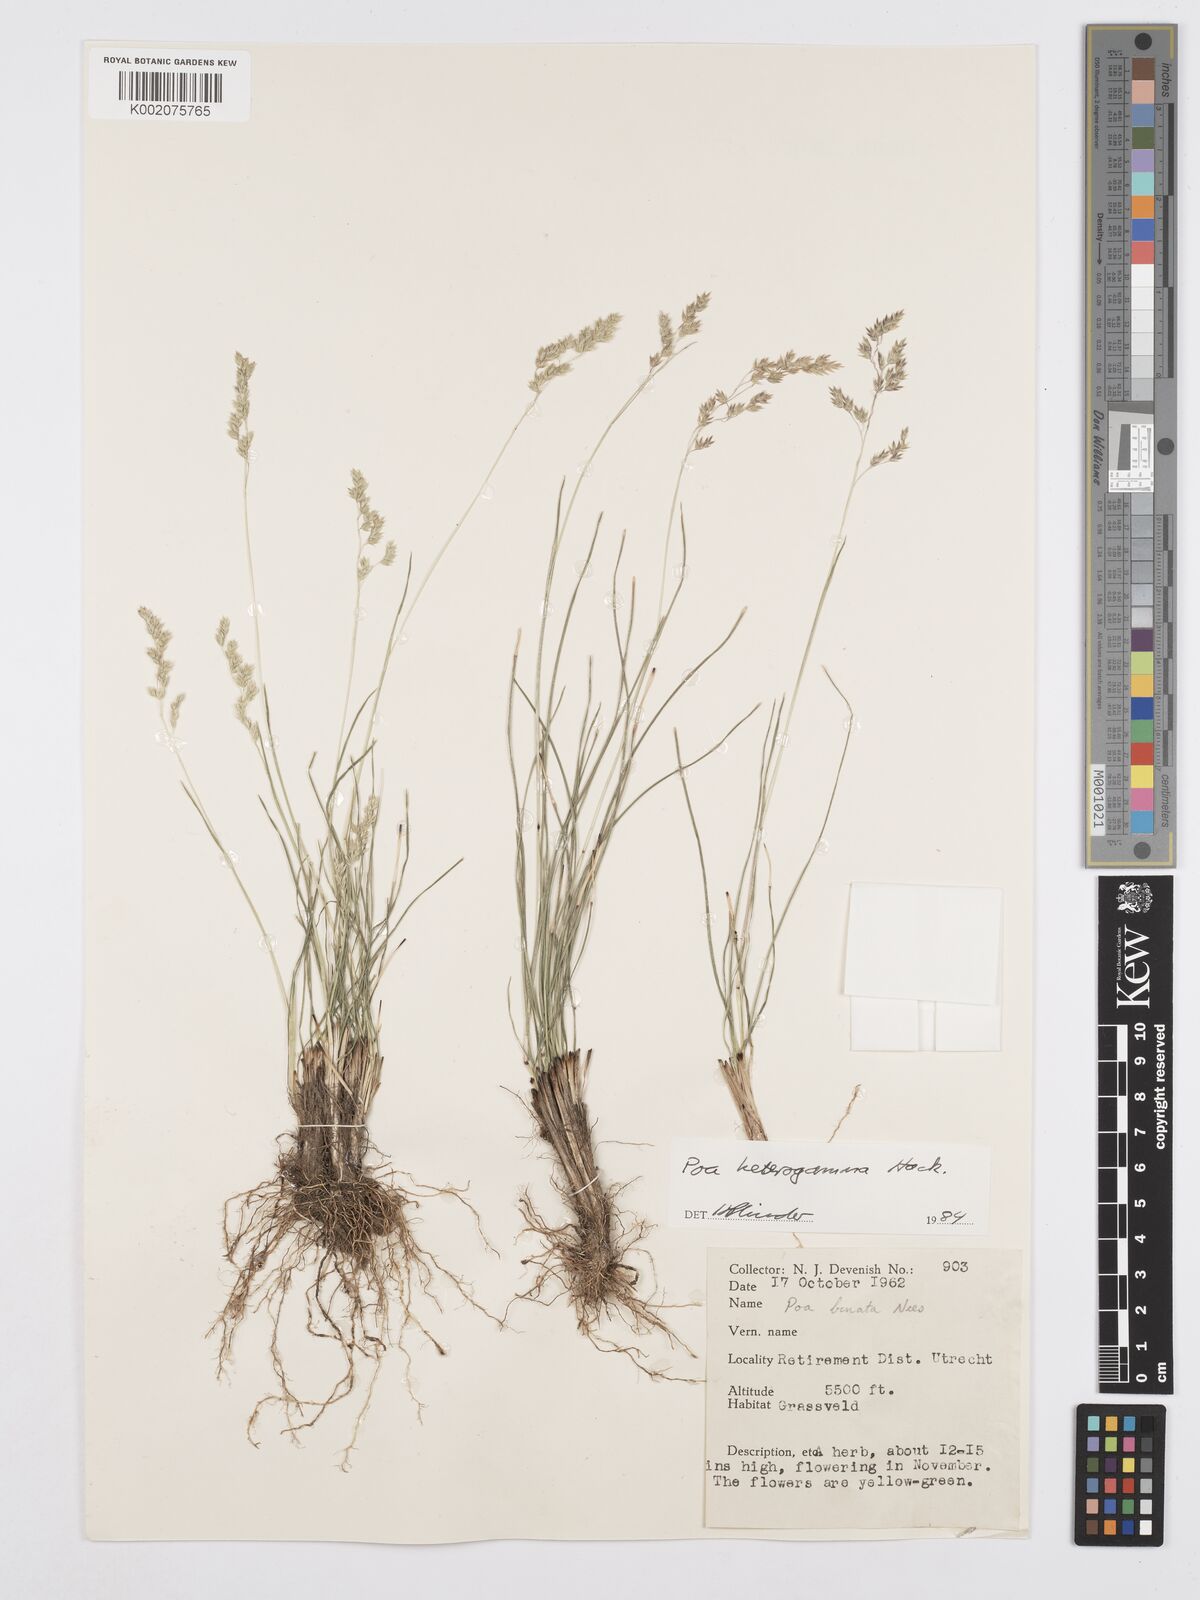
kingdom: Plantae
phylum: Tracheophyta
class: Liliopsida
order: Poales
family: Poaceae
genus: Poa
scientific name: Poa binata
